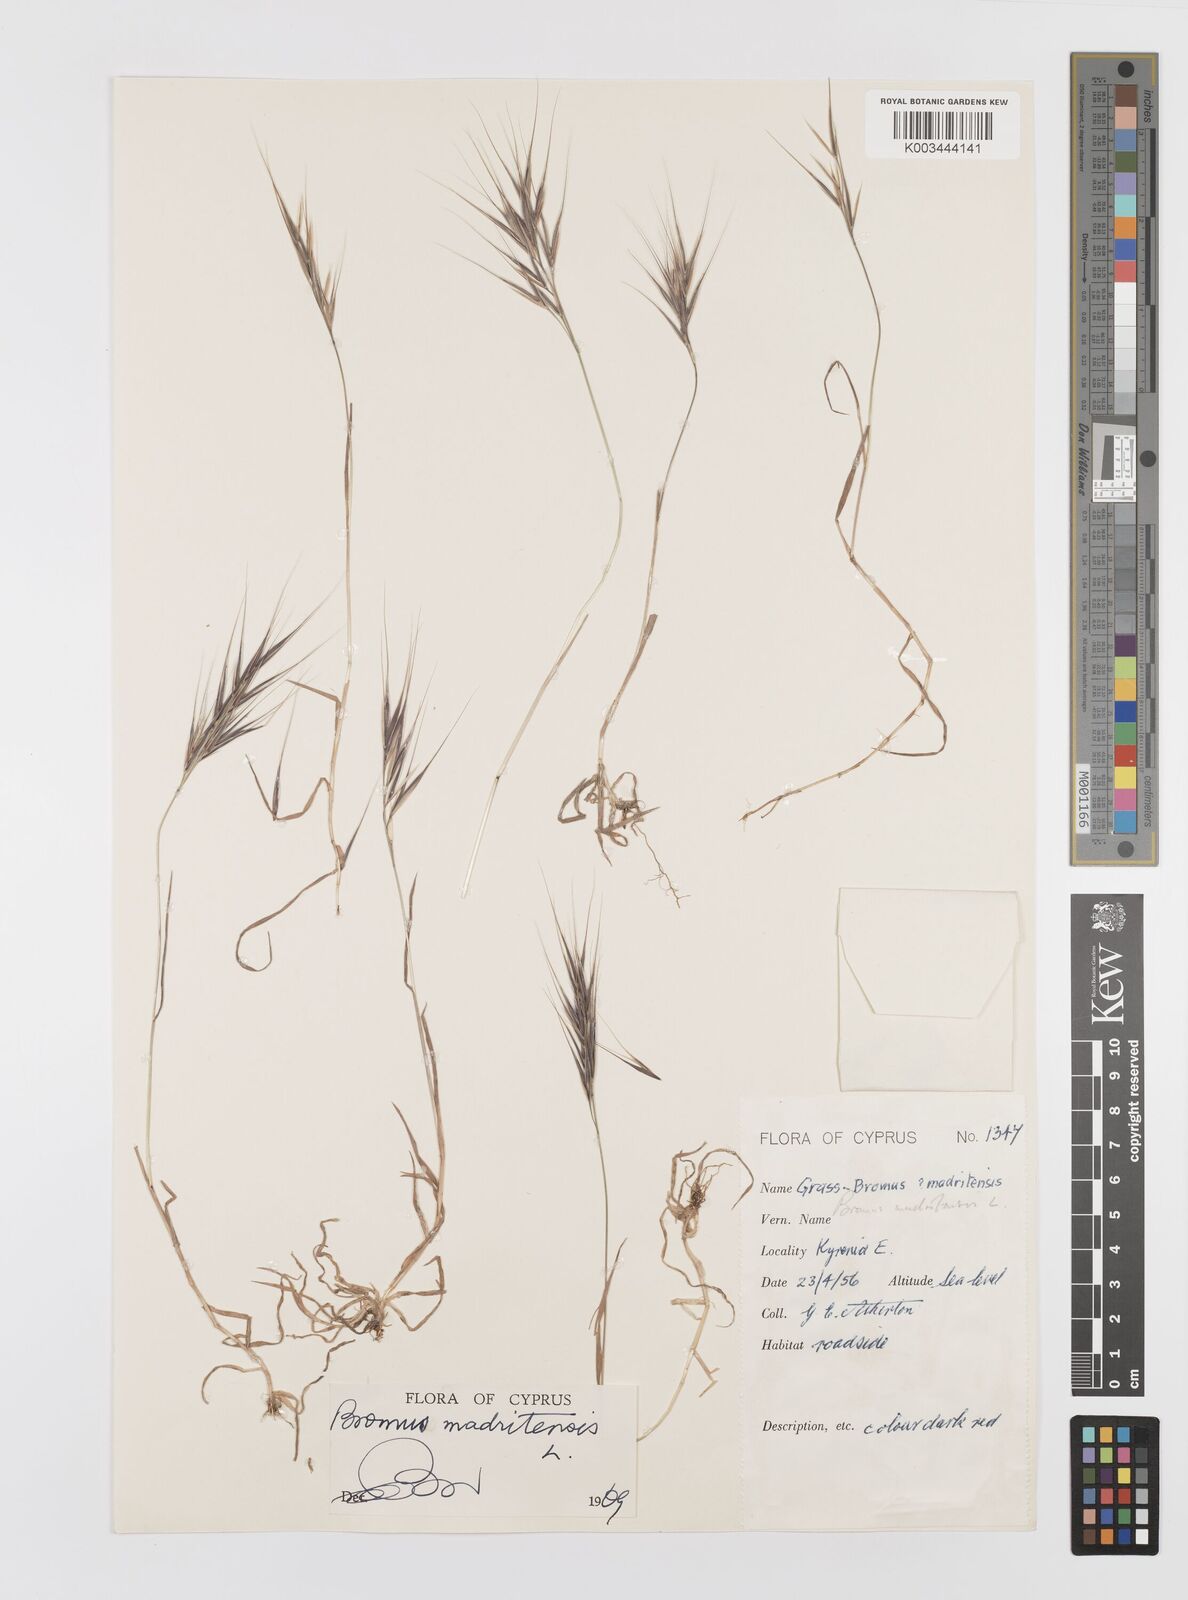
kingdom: Plantae
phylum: Tracheophyta
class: Liliopsida
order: Poales
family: Poaceae
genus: Bromus
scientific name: Bromus madritensis
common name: Compact brome
